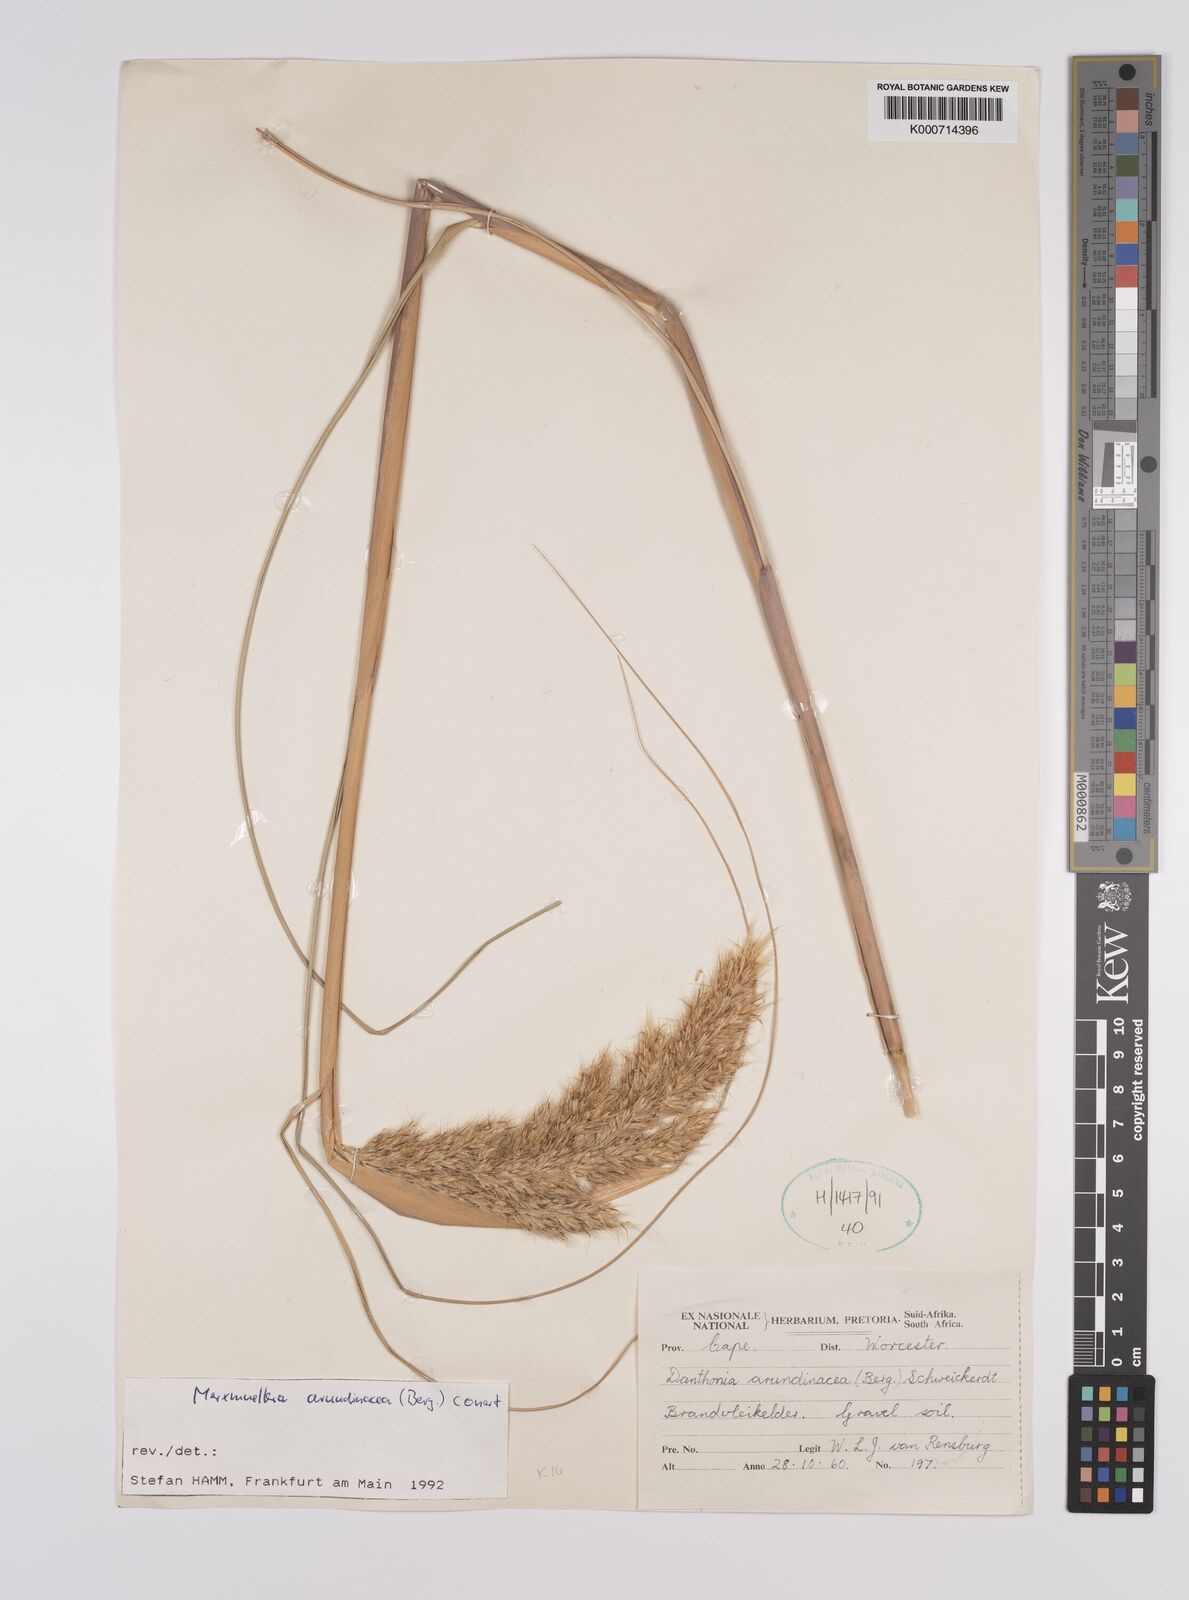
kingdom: Plantae
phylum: Tracheophyta
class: Liliopsida
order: Poales
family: Poaceae
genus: Rytidosperma
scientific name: Rytidosperma
